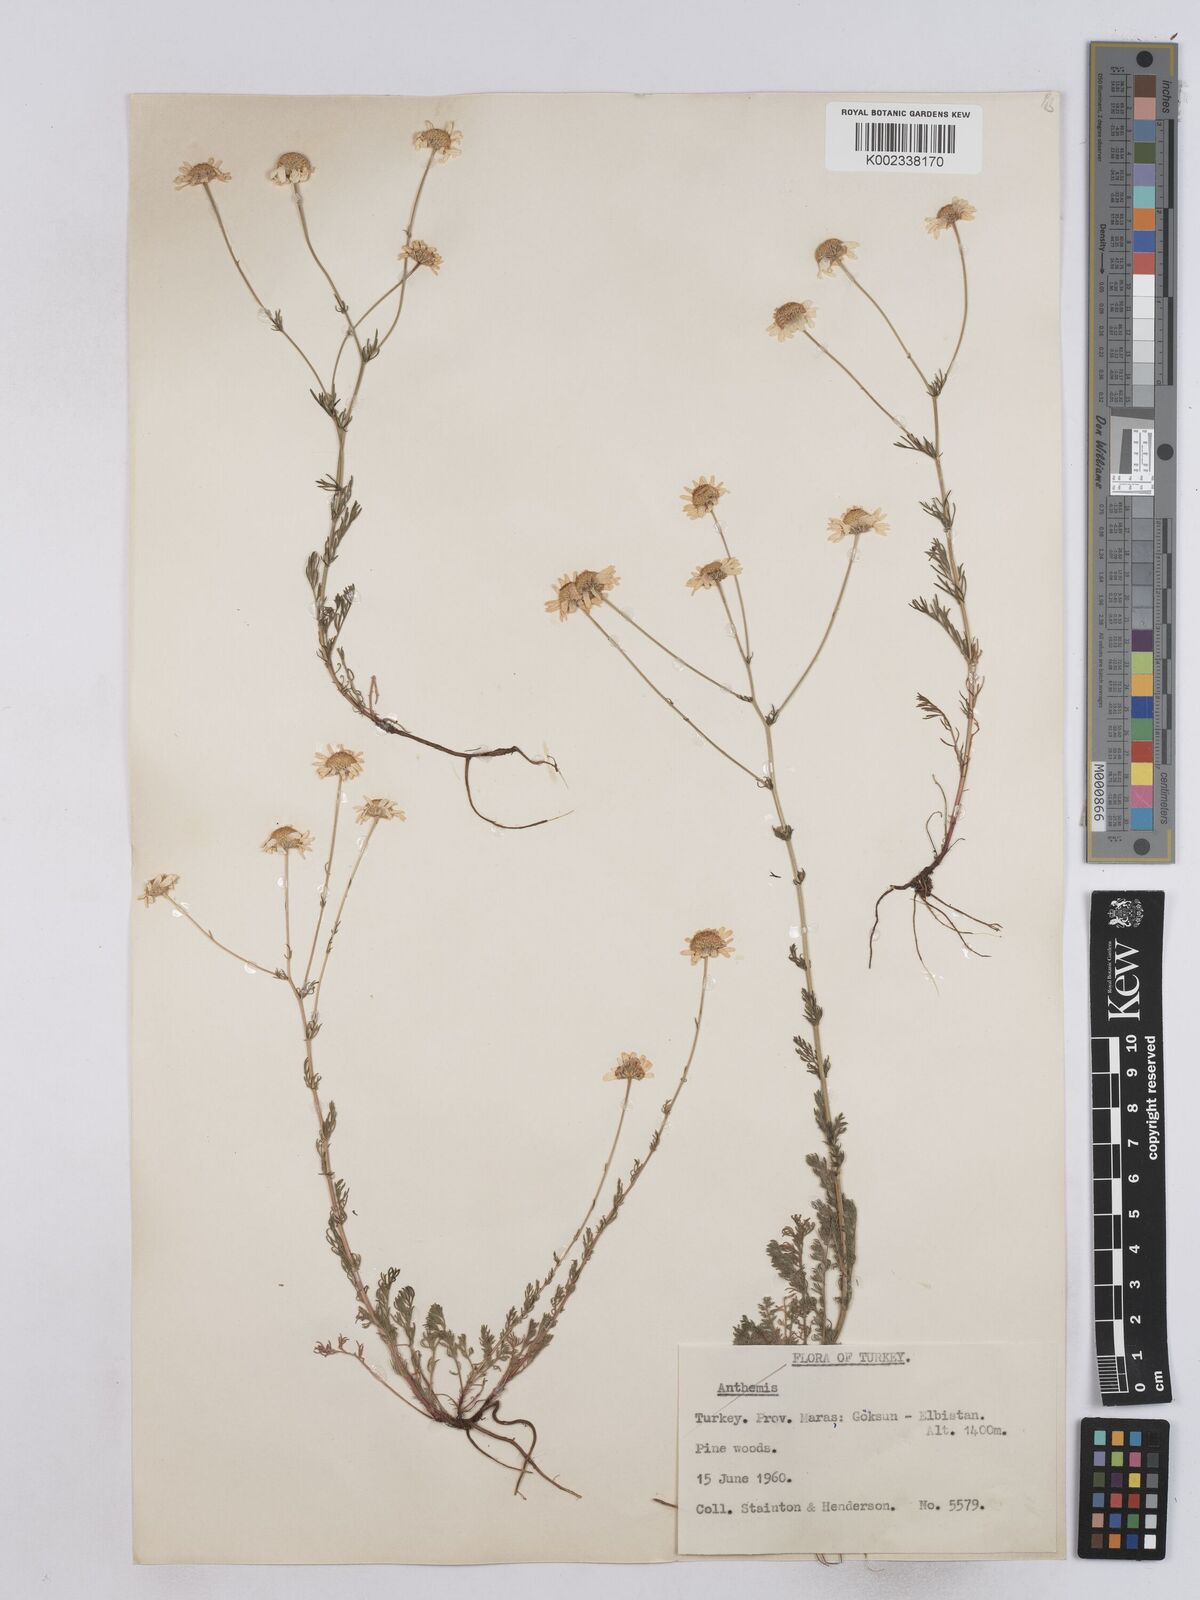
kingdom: Plantae
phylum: Tracheophyta
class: Magnoliopsida
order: Asterales
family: Asteraceae
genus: Matricaria
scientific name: Matricaria
